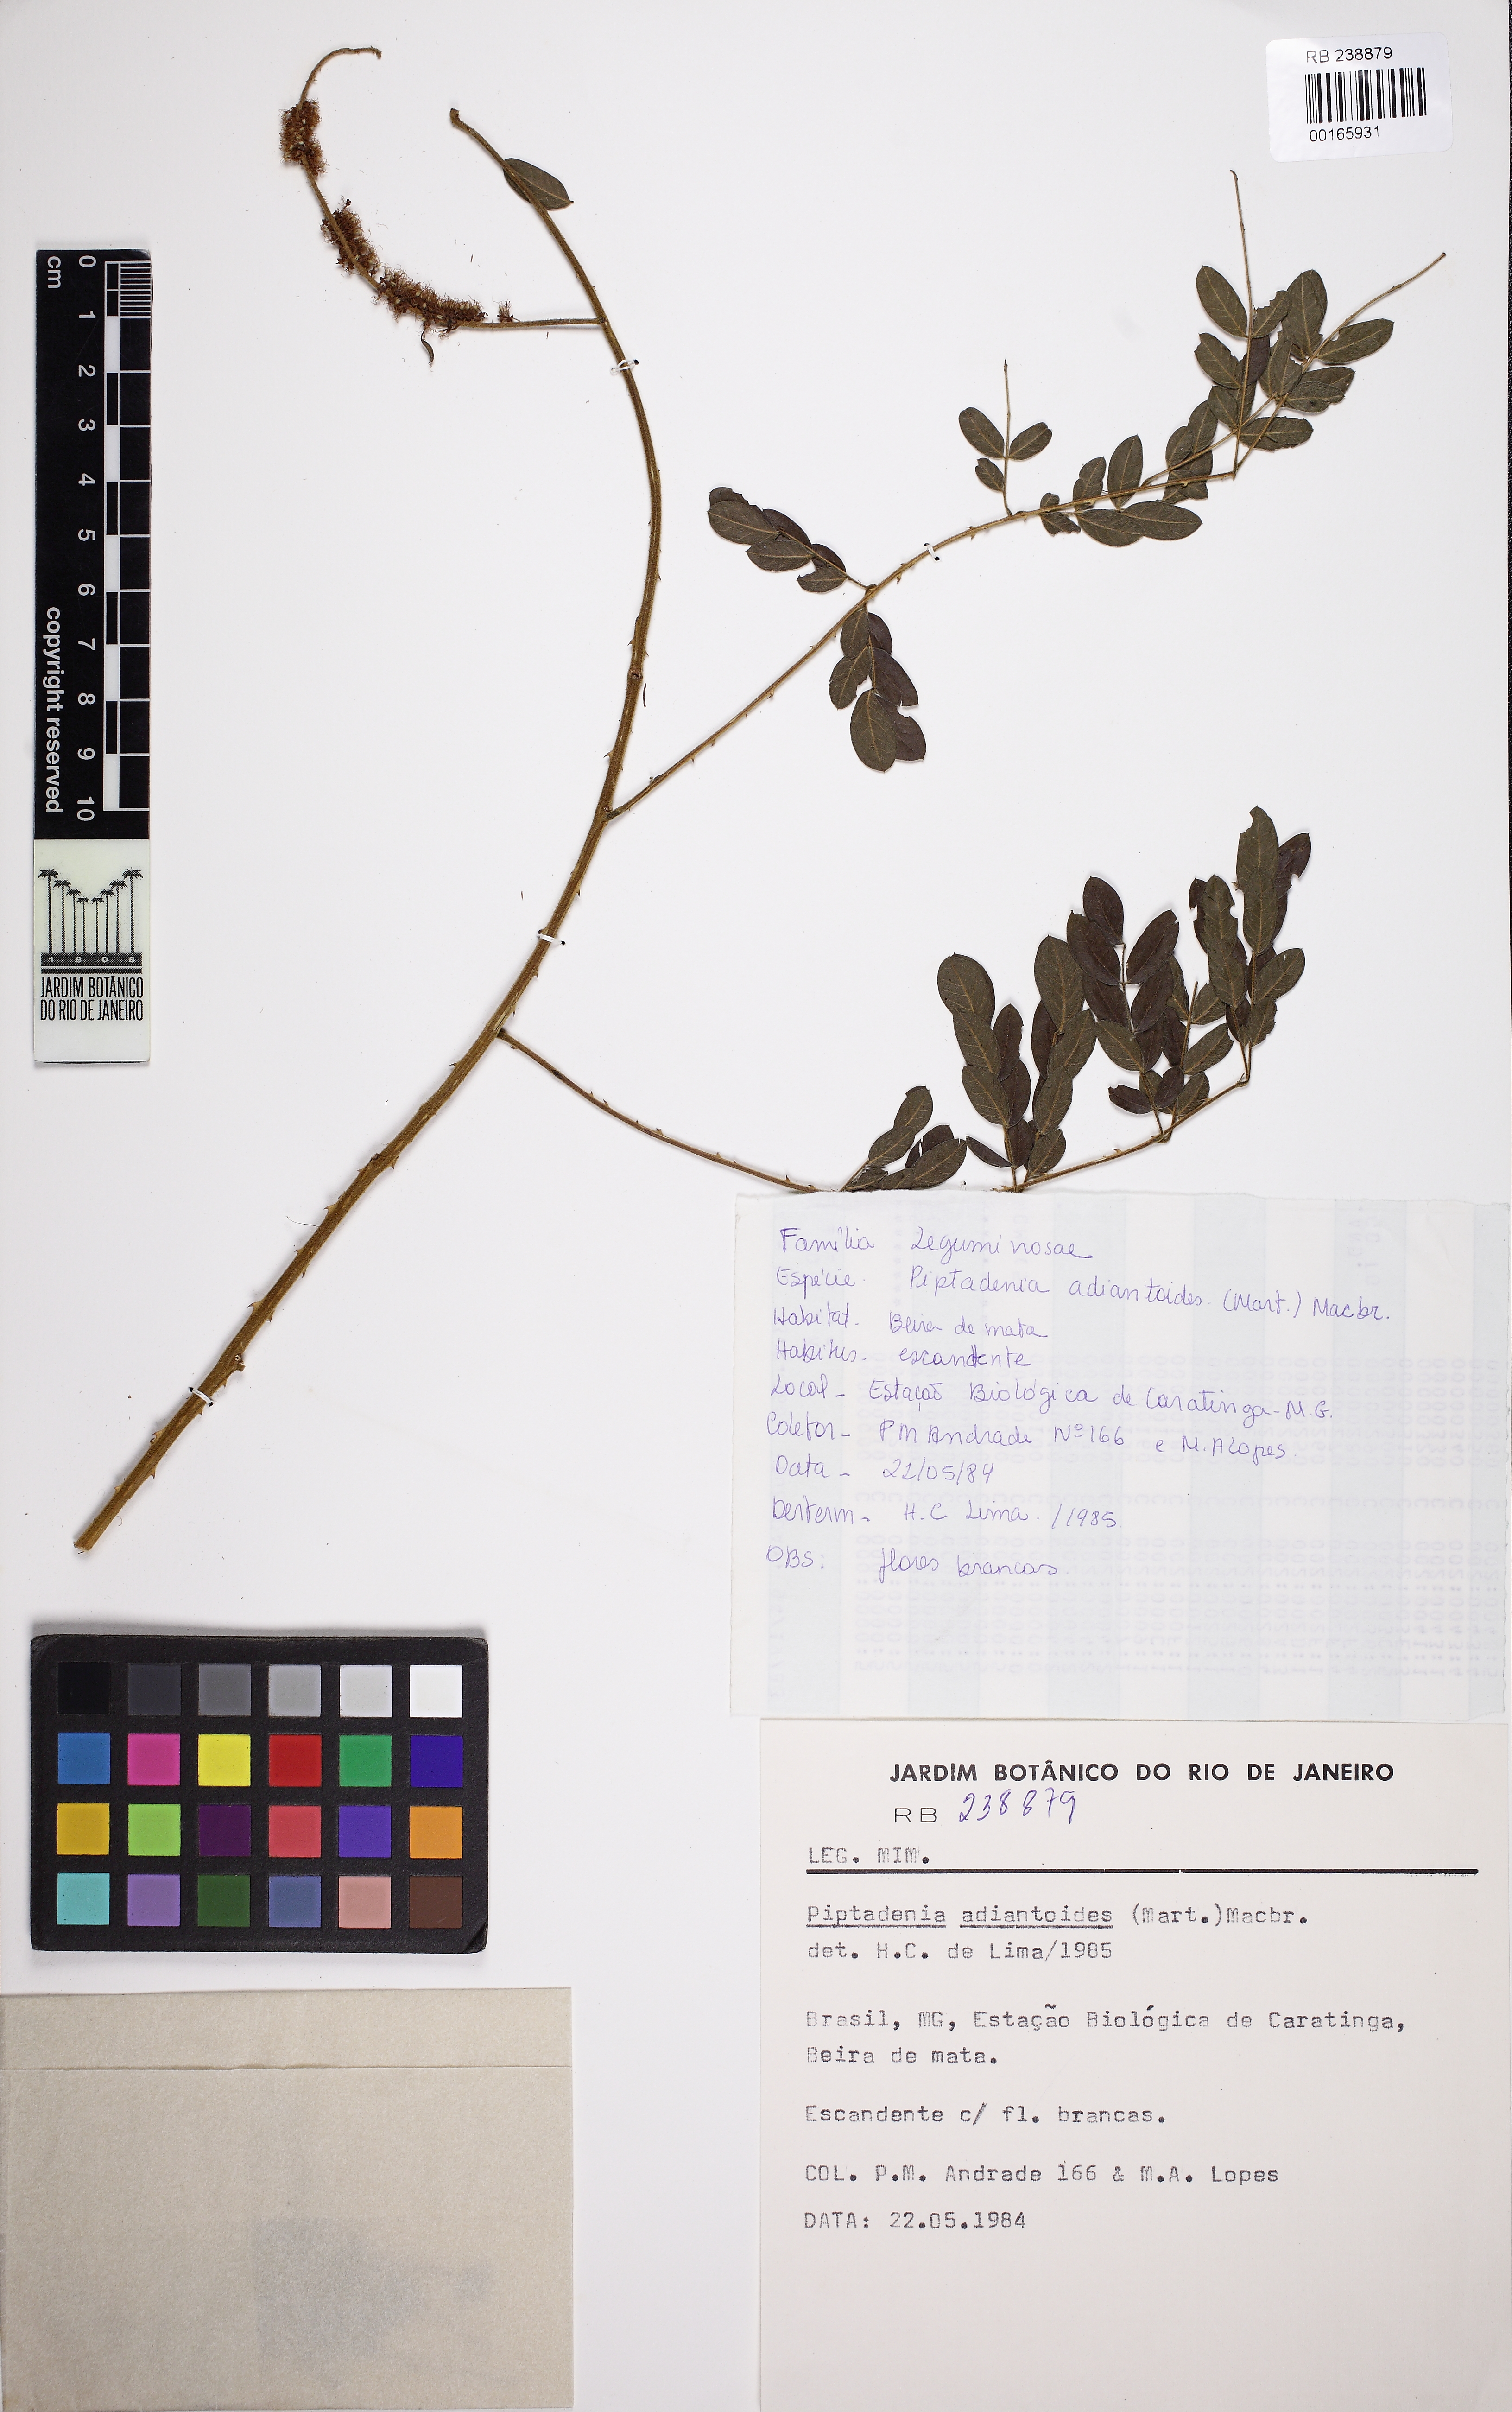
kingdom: Plantae
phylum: Tracheophyta
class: Magnoliopsida
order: Fabales
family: Fabaceae
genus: Piptadenia
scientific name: Piptadenia adiantoides
